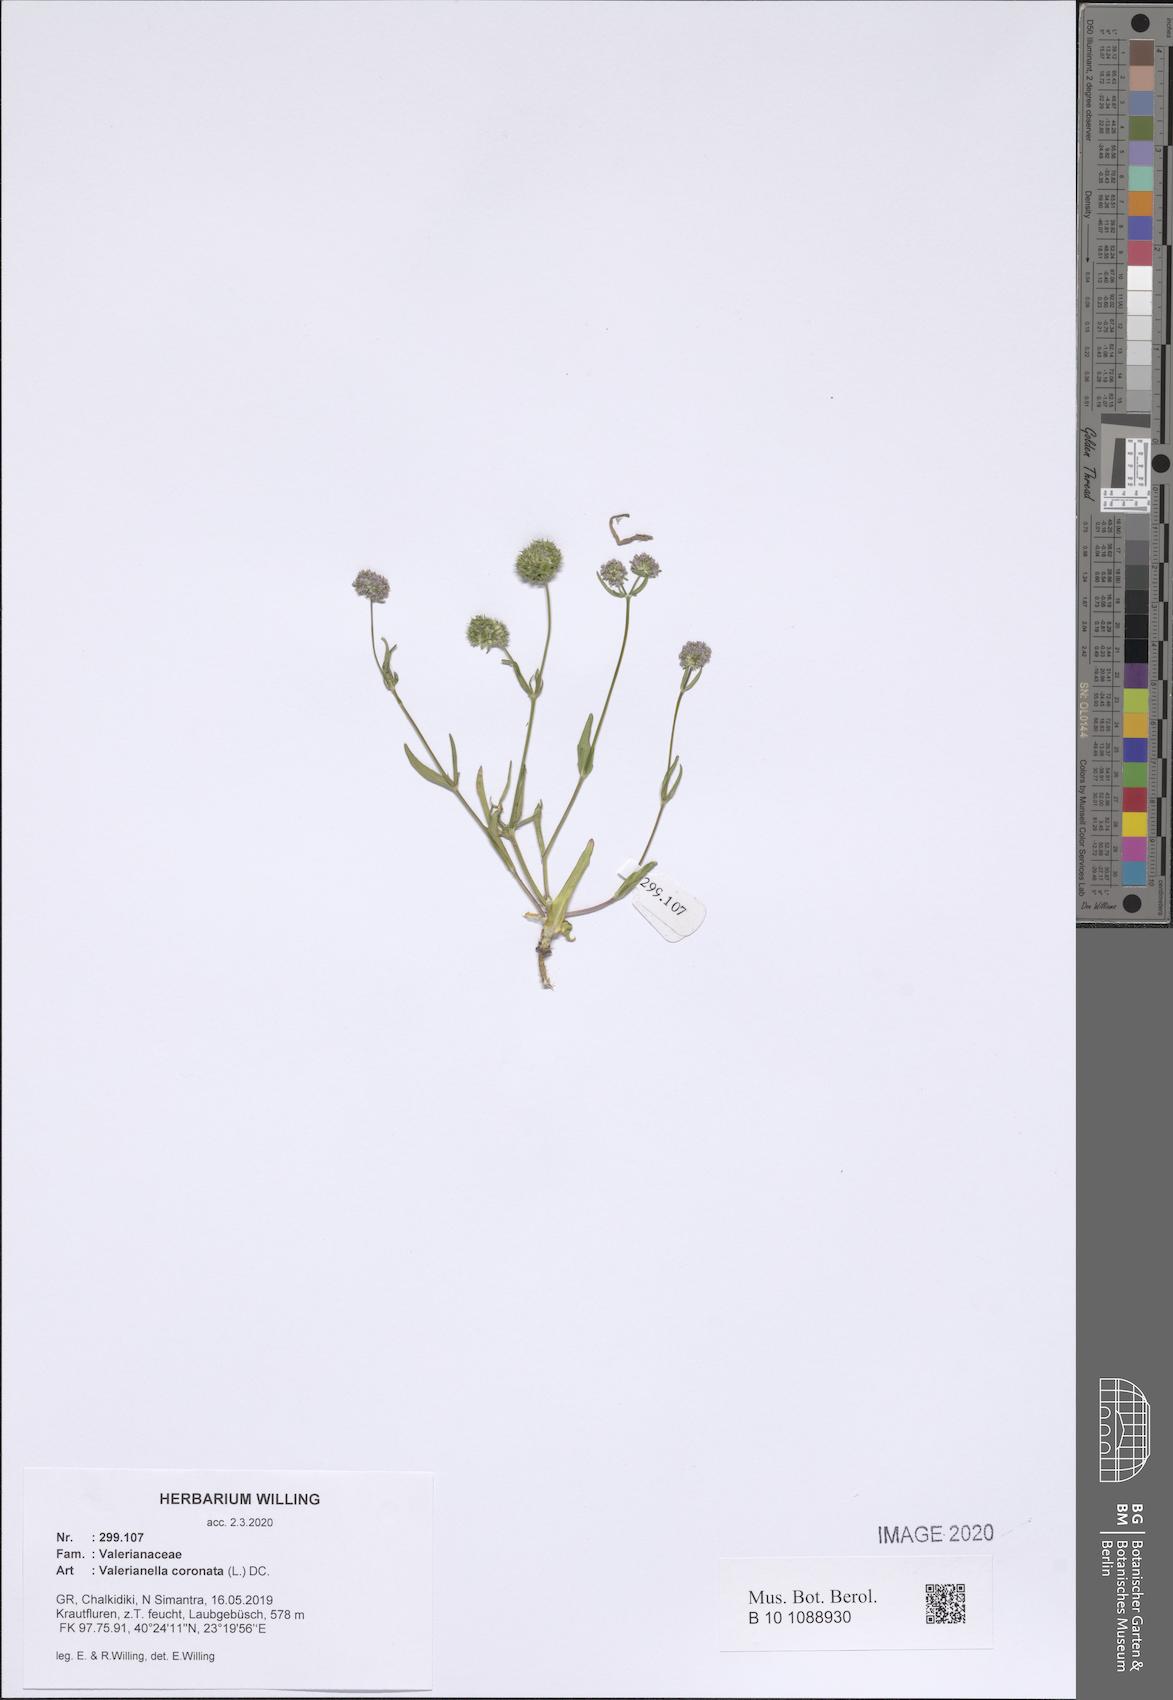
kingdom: Plantae
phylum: Tracheophyta
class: Magnoliopsida
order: Dipsacales
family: Caprifoliaceae
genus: Valerianella
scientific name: Valerianella coronata
